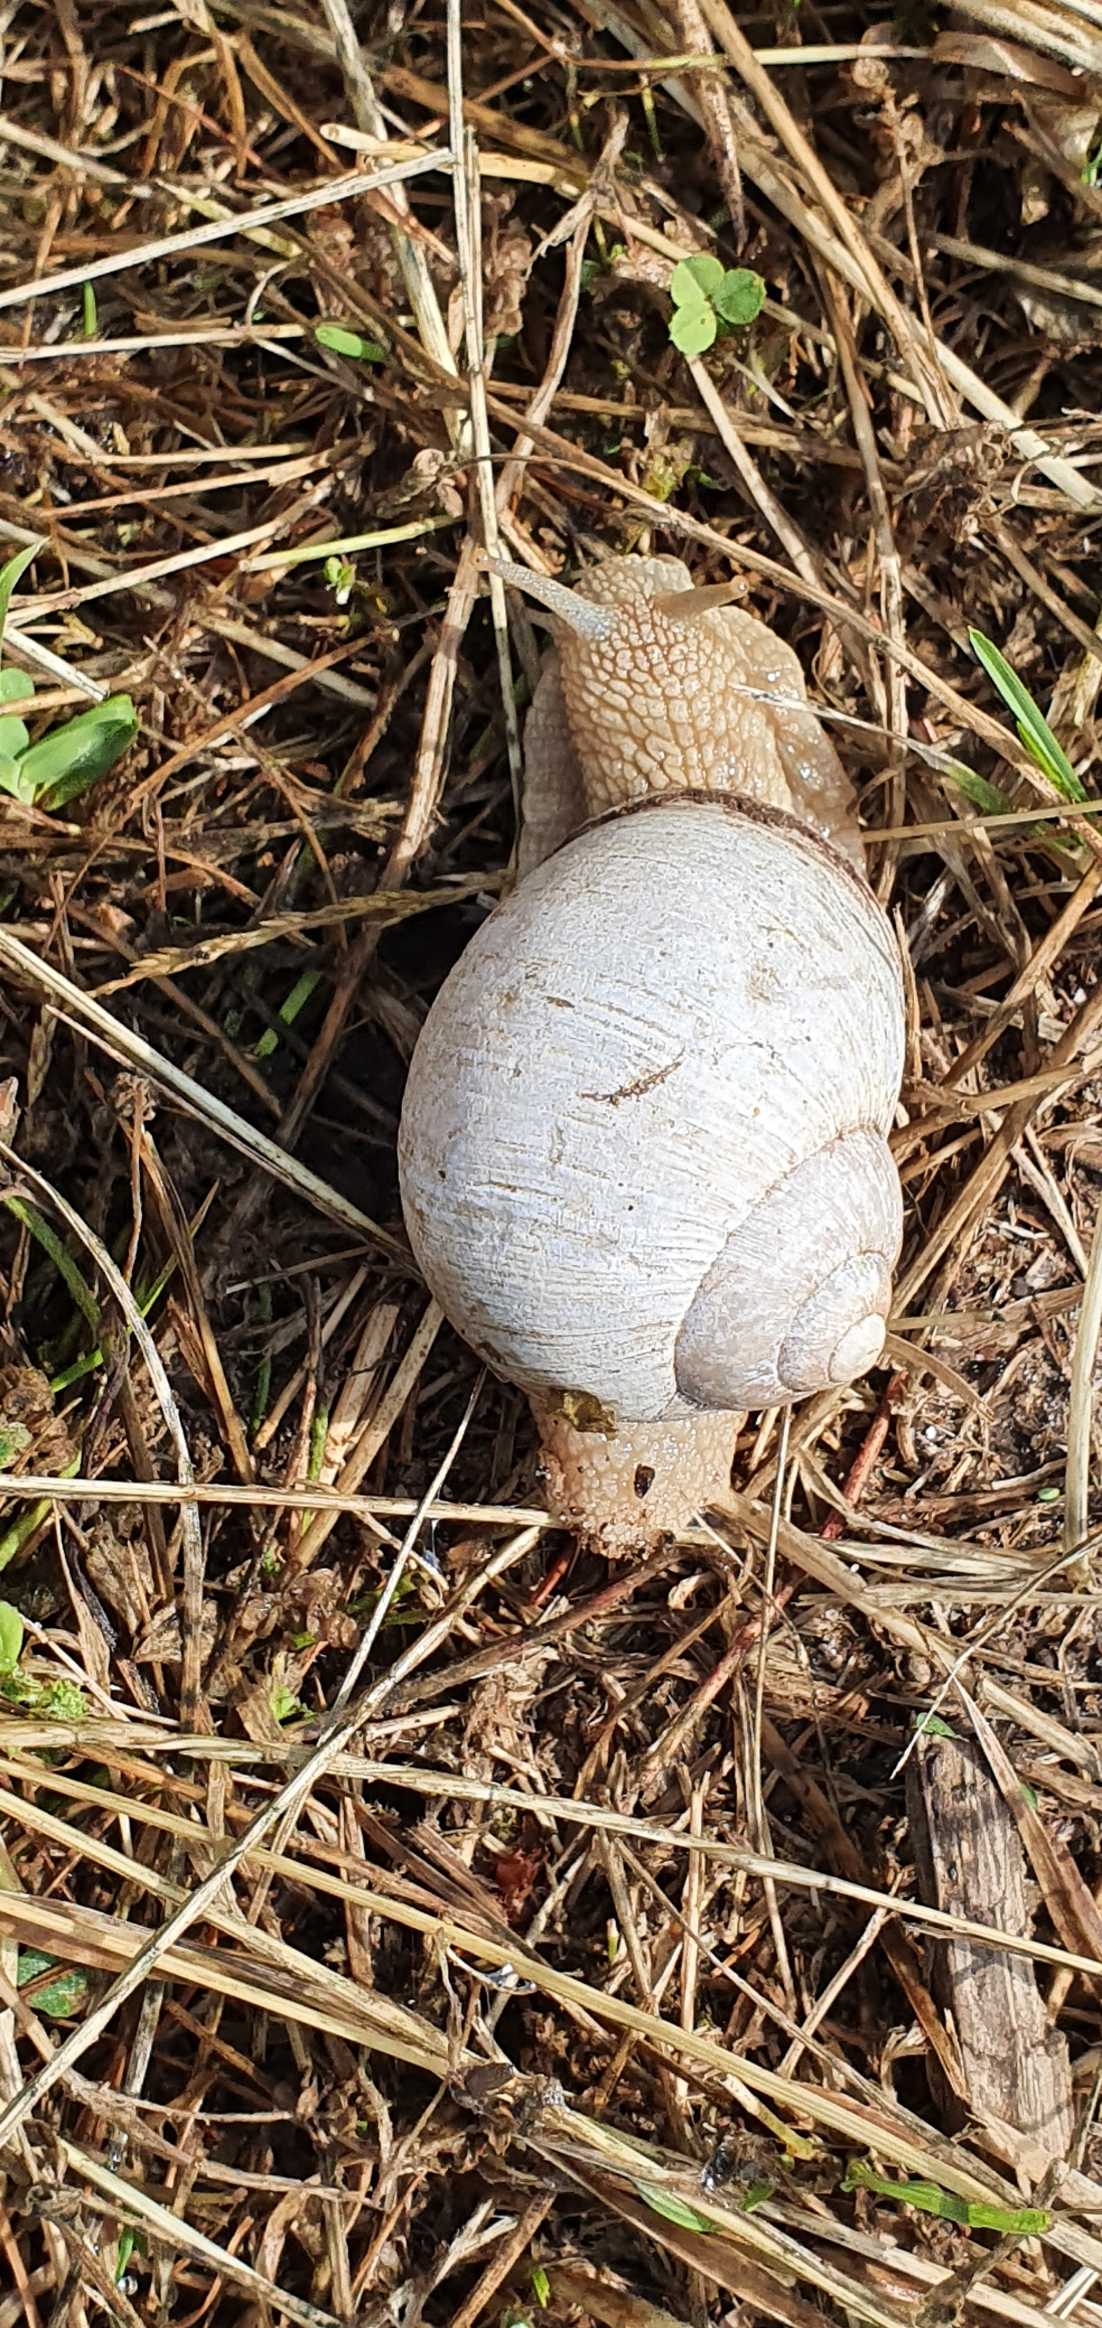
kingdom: Animalia
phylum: Mollusca
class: Gastropoda
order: Stylommatophora
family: Helicidae
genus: Helix
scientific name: Helix pomatia
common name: Vinbjergsnegl
